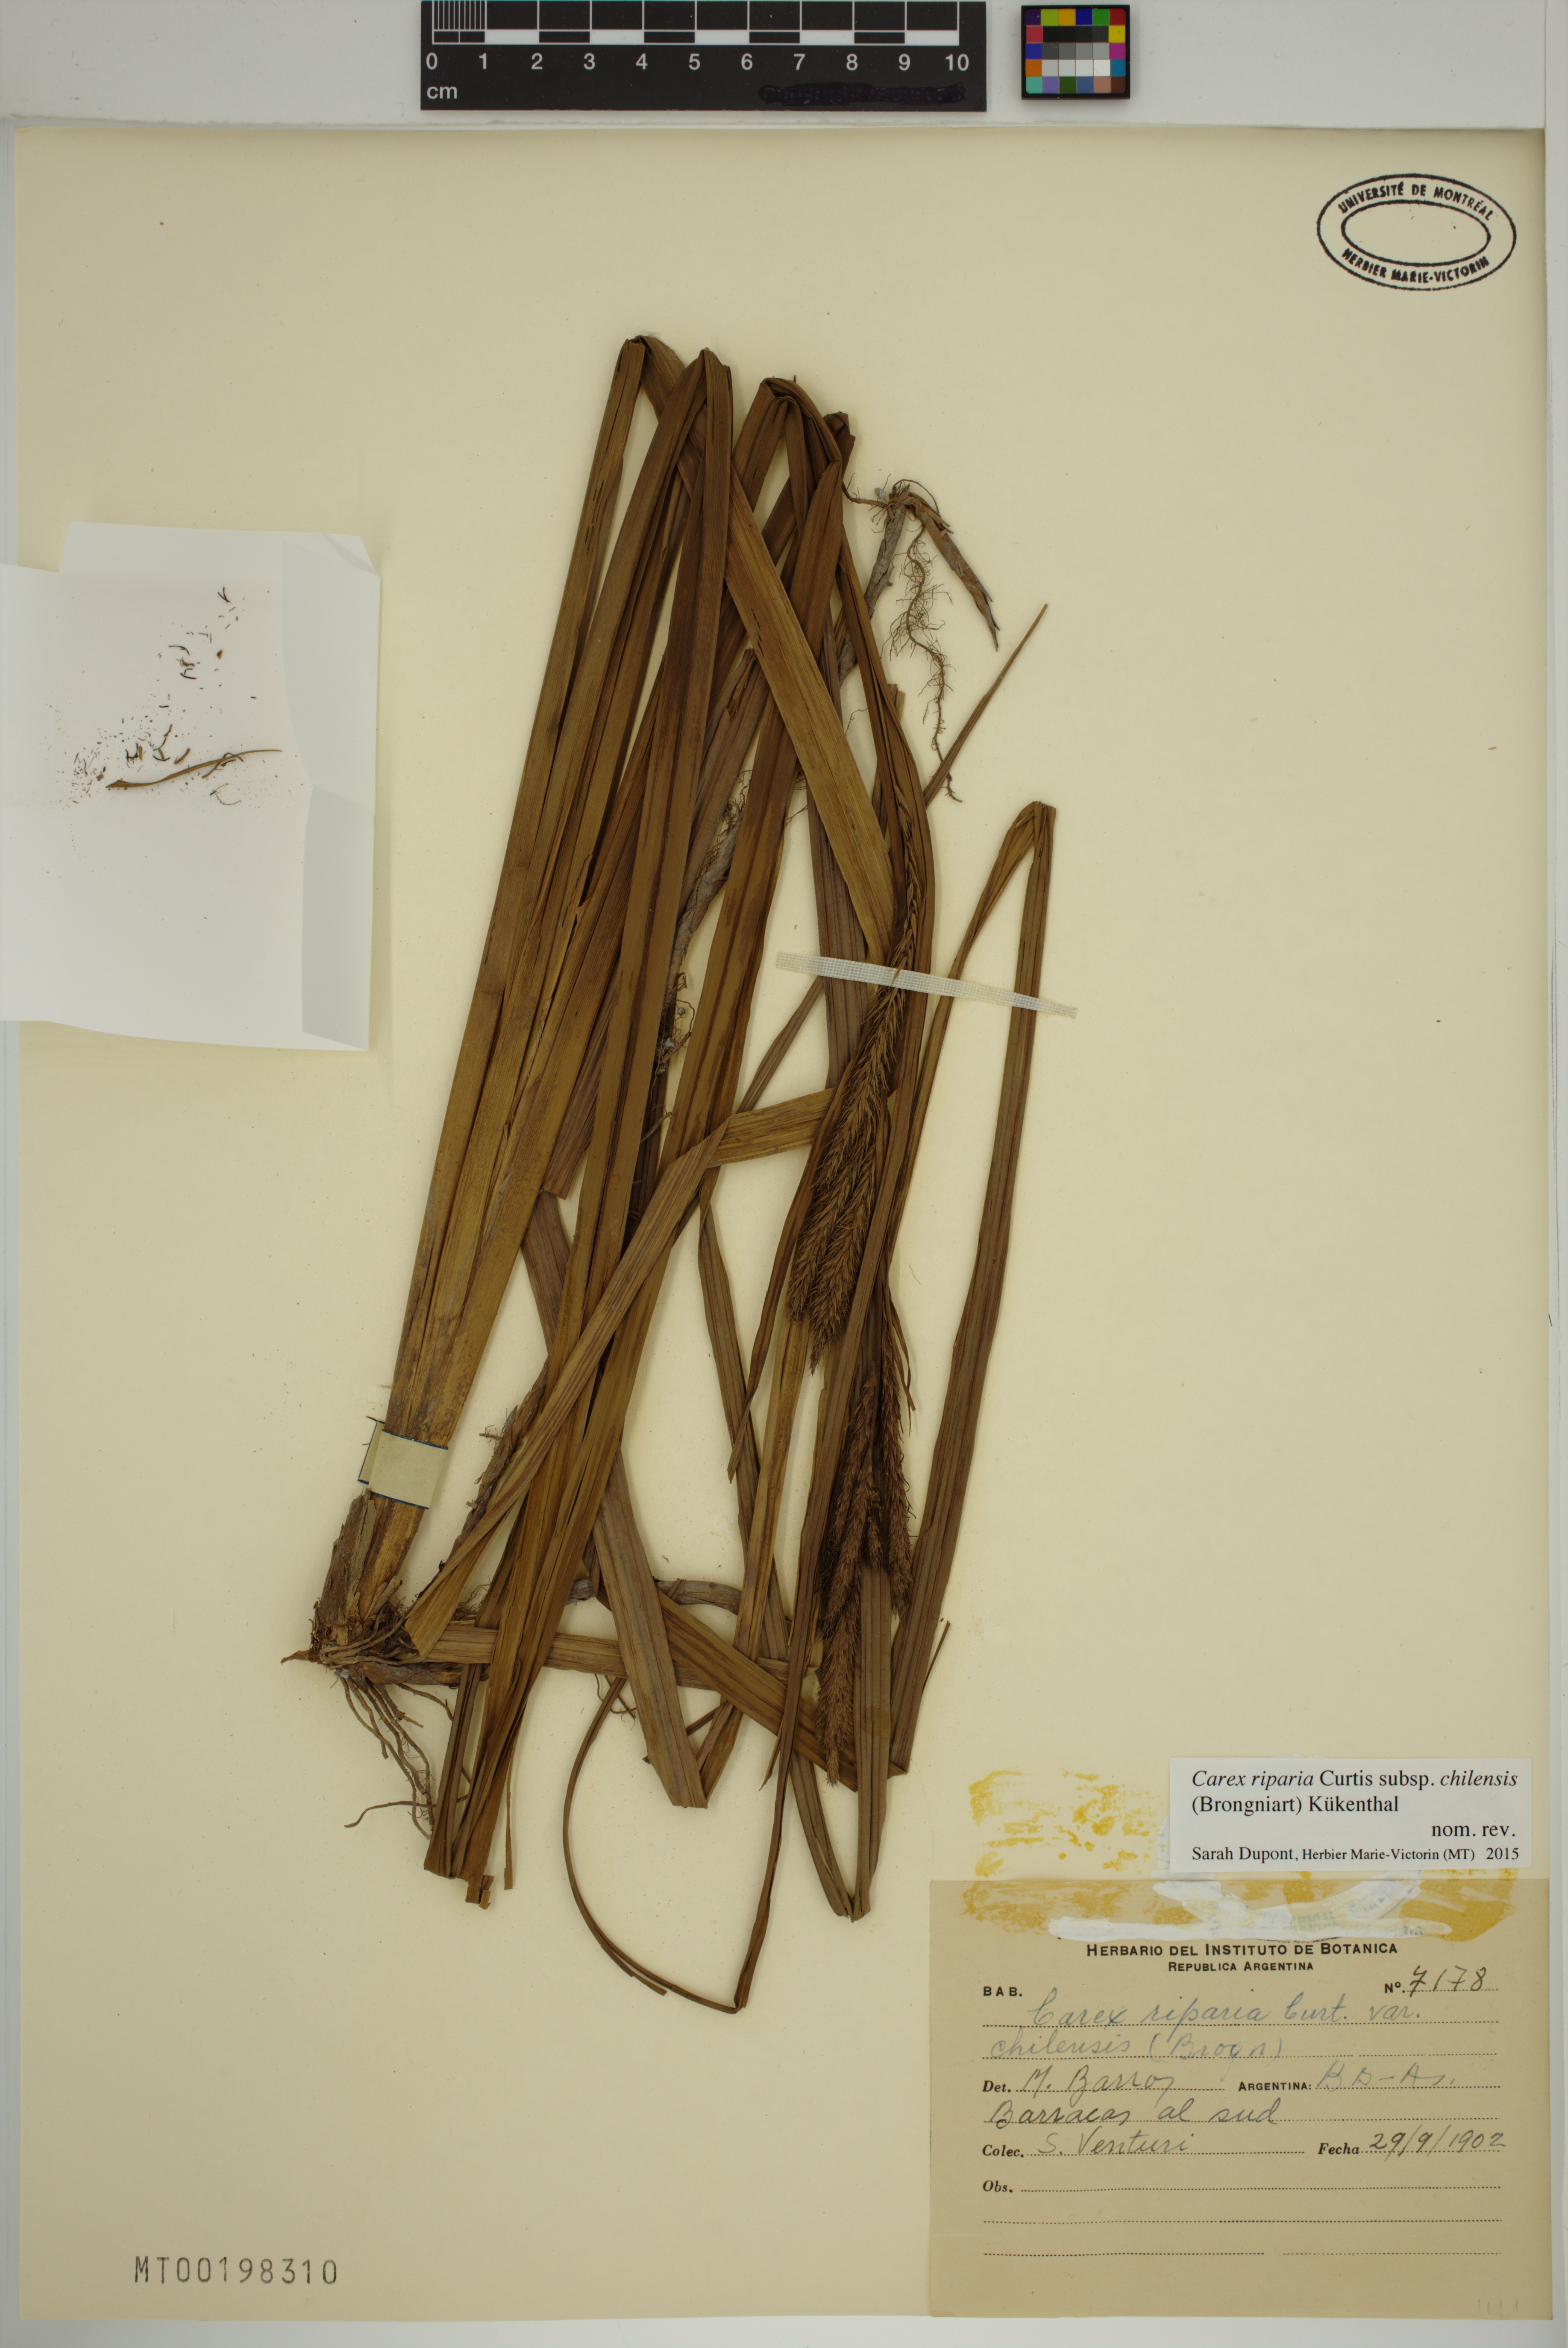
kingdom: Plantae
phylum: Tracheophyta
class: Liliopsida
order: Poales
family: Cyperaceae
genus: Carex
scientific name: Carex chilensis
